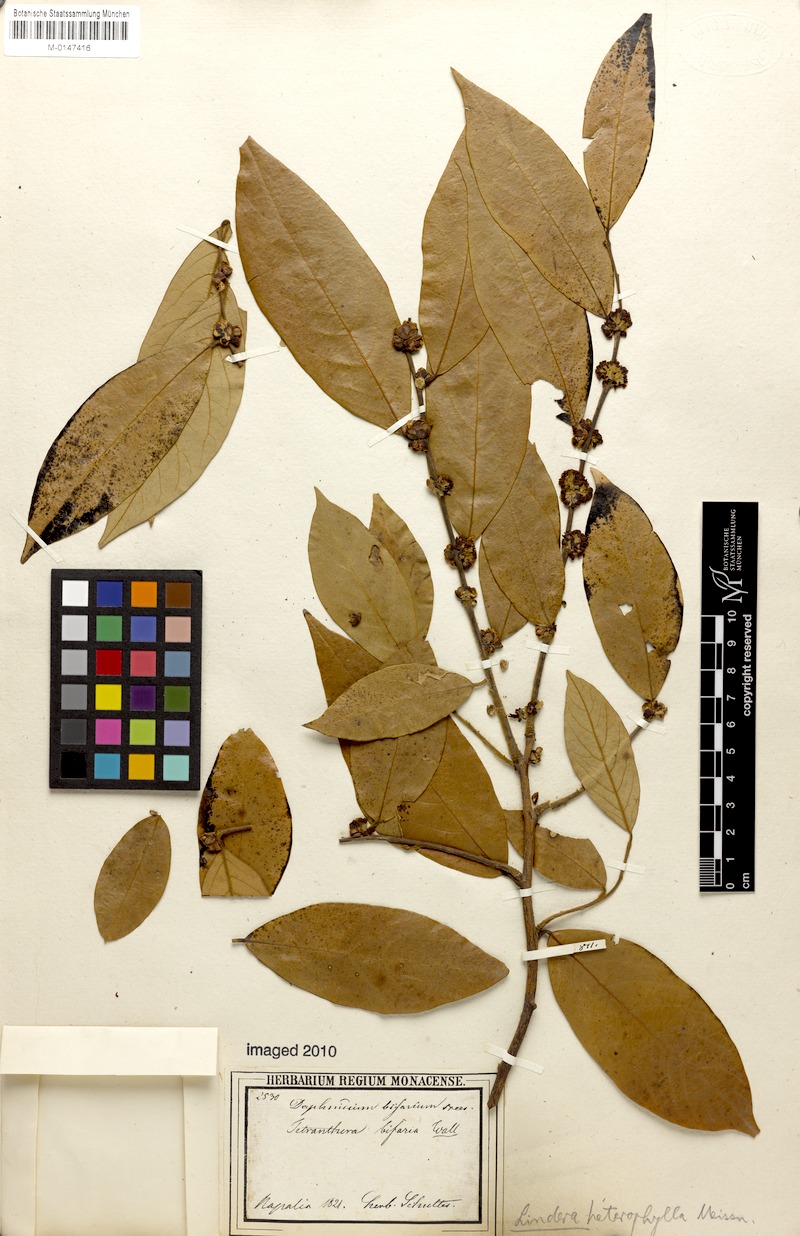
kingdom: Plantae
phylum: Tracheophyta
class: Magnoliopsida
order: Laurales
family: Lauraceae
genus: Lindera
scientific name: Lindera obtusiloba
